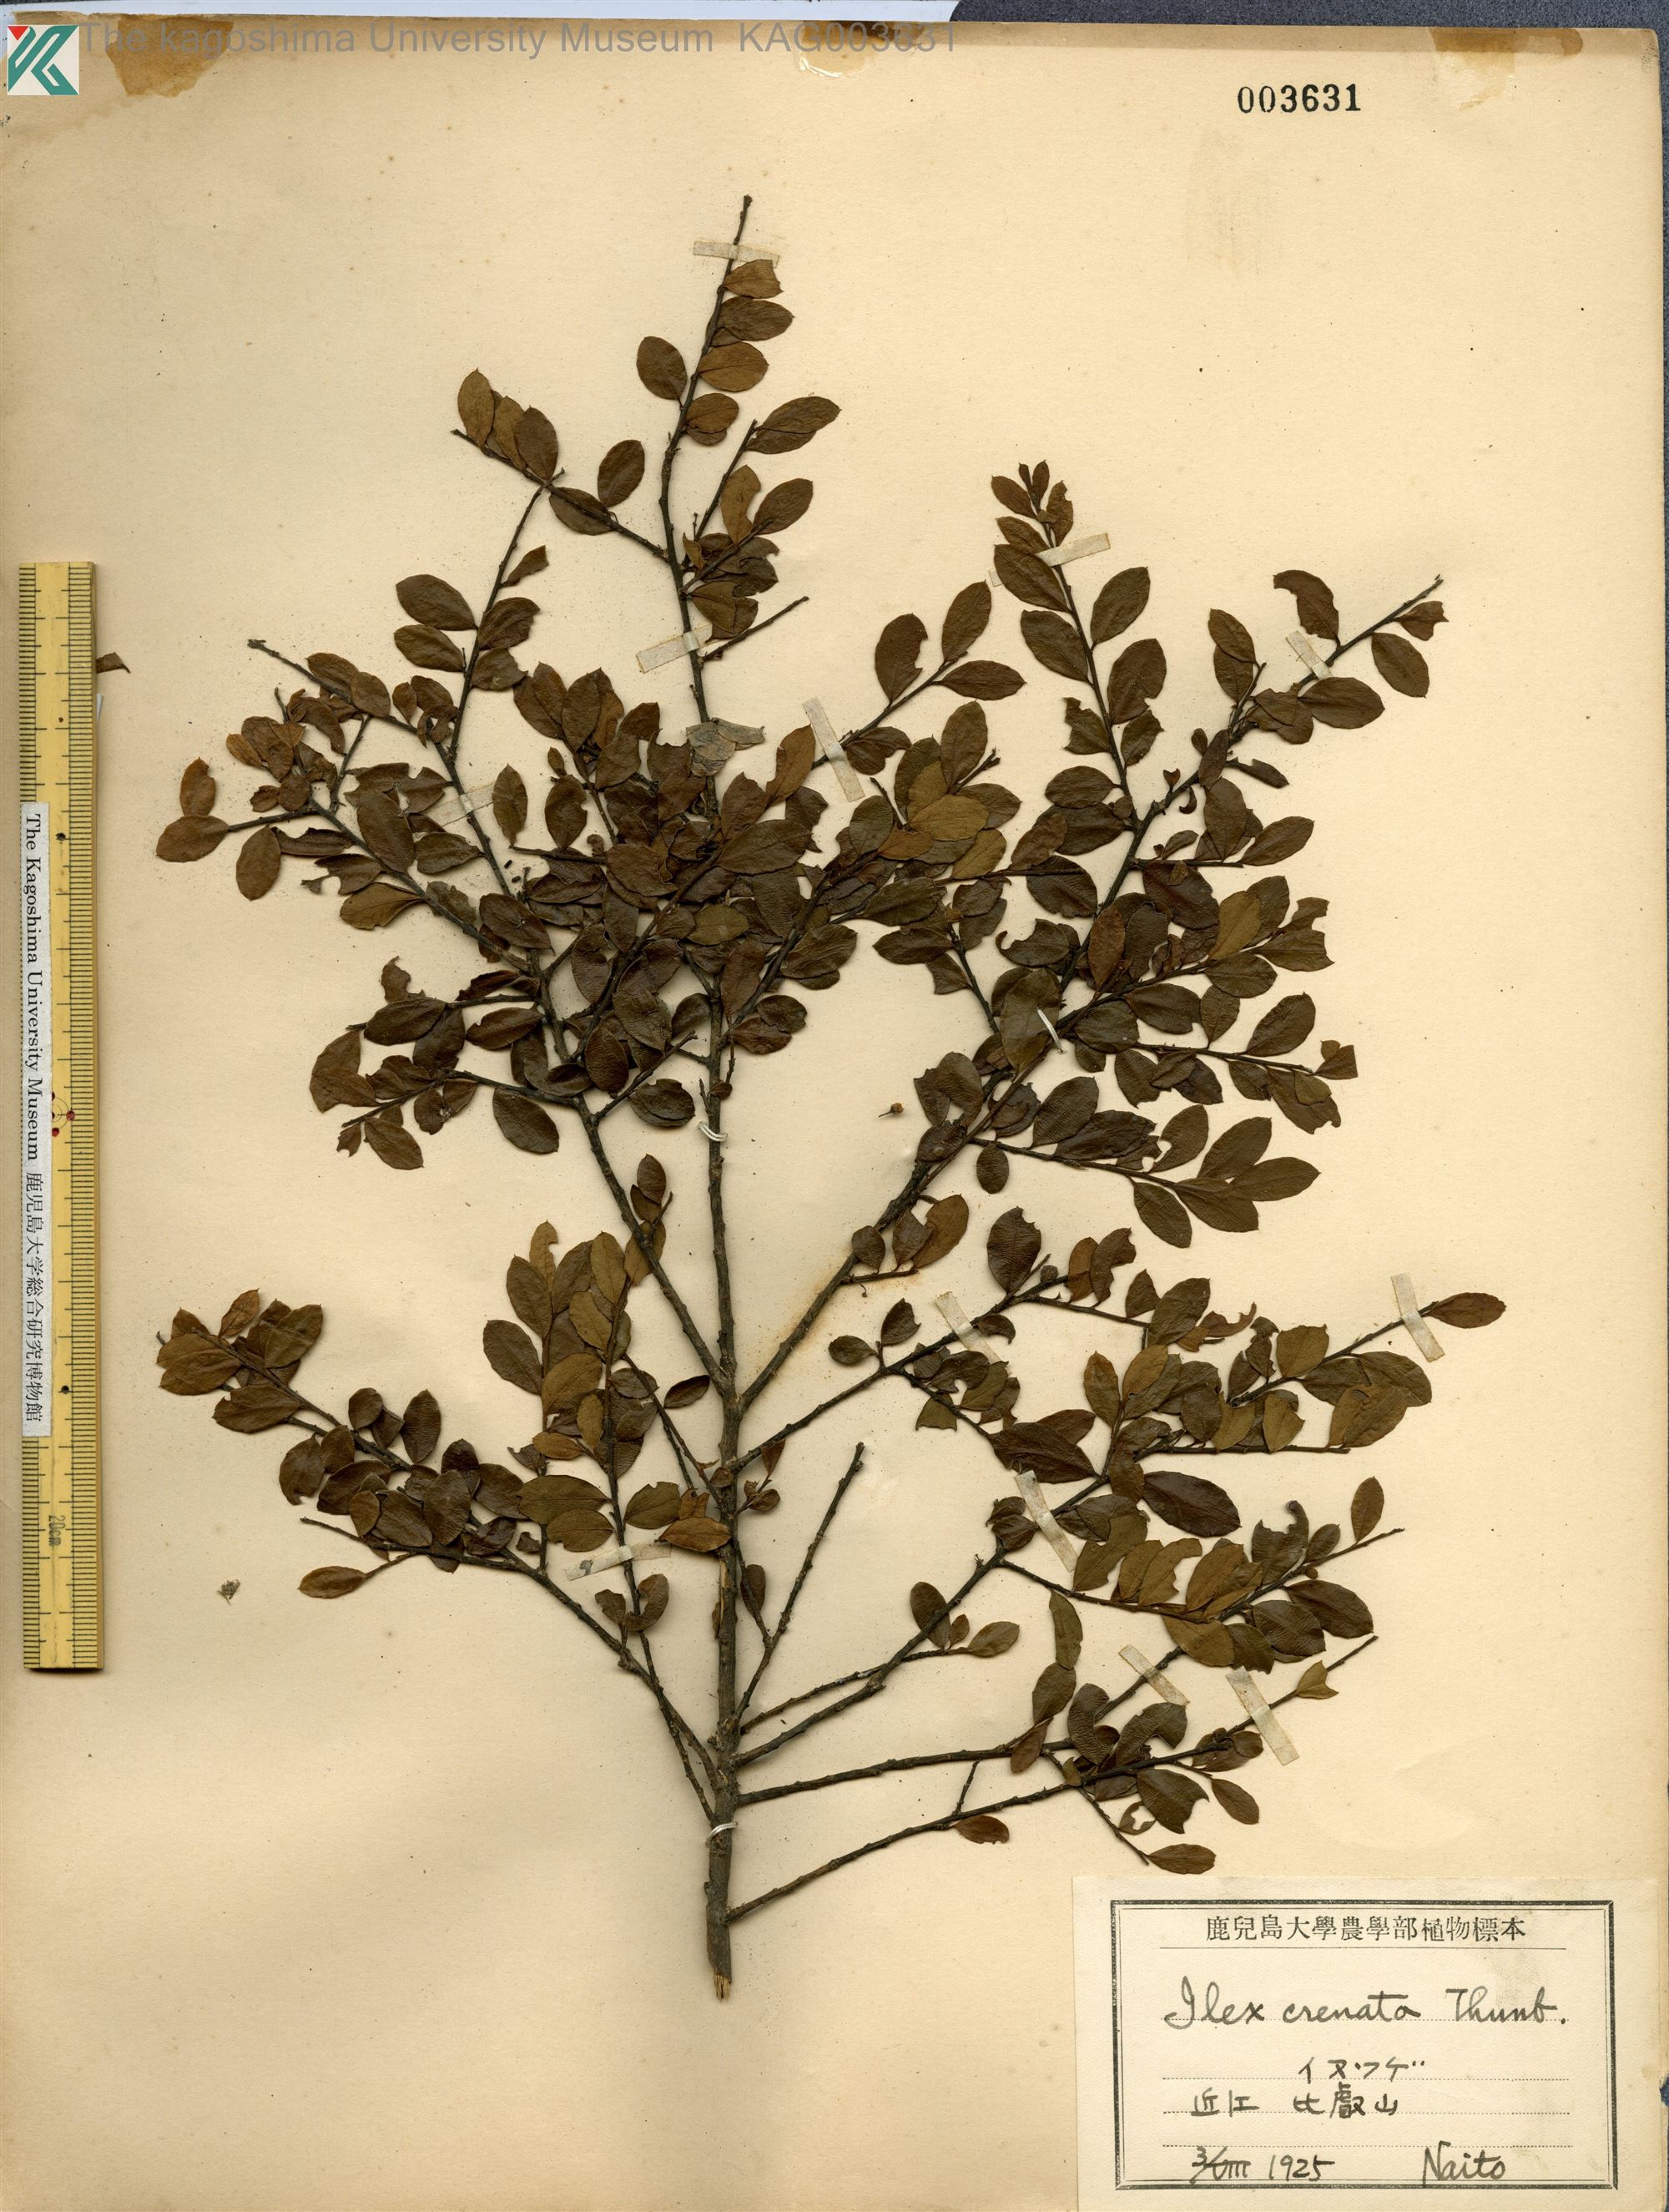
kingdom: Plantae
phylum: Tracheophyta
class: Magnoliopsida
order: Aquifoliales
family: Aquifoliaceae
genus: Ilex
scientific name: Ilex crenata
